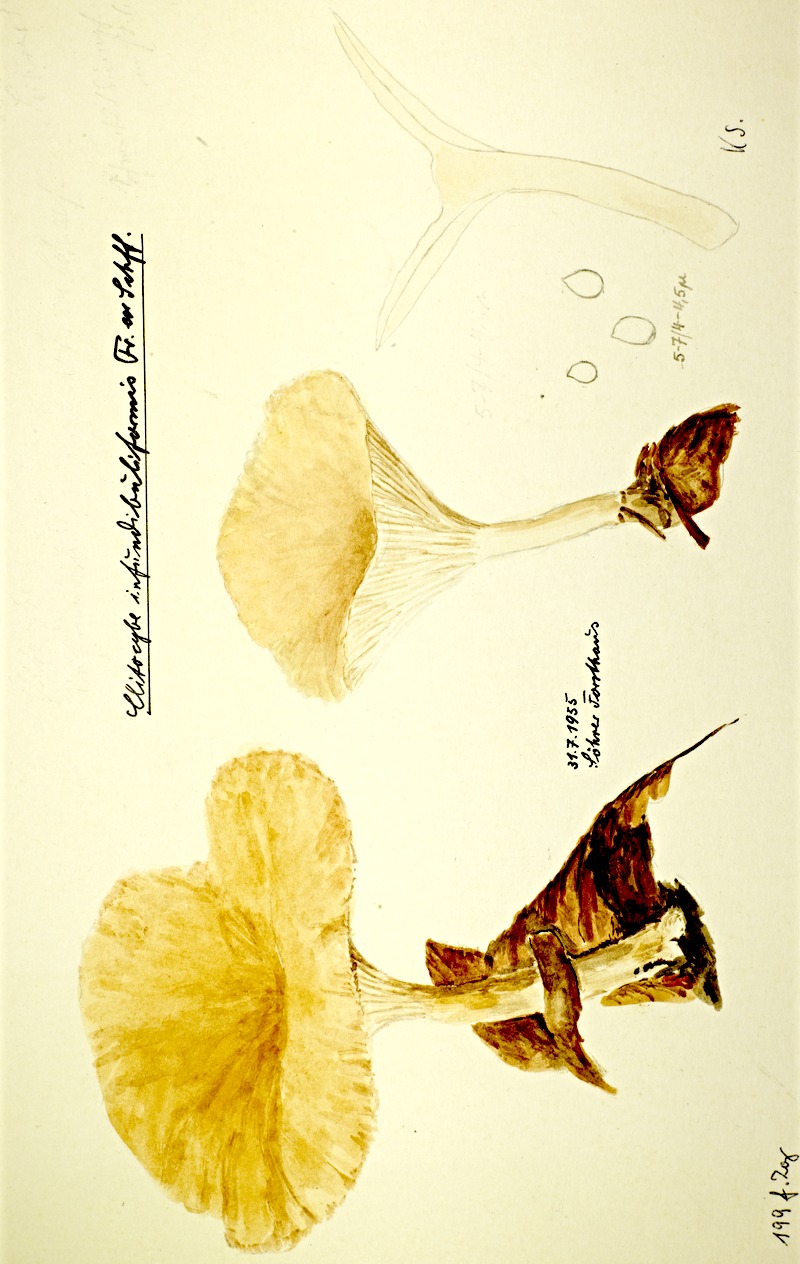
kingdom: Fungi
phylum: Basidiomycota
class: Agaricomycetes
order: Agaricales
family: Tricholomataceae
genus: Infundibulicybe
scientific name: Infundibulicybe gibba
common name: Common funnel
